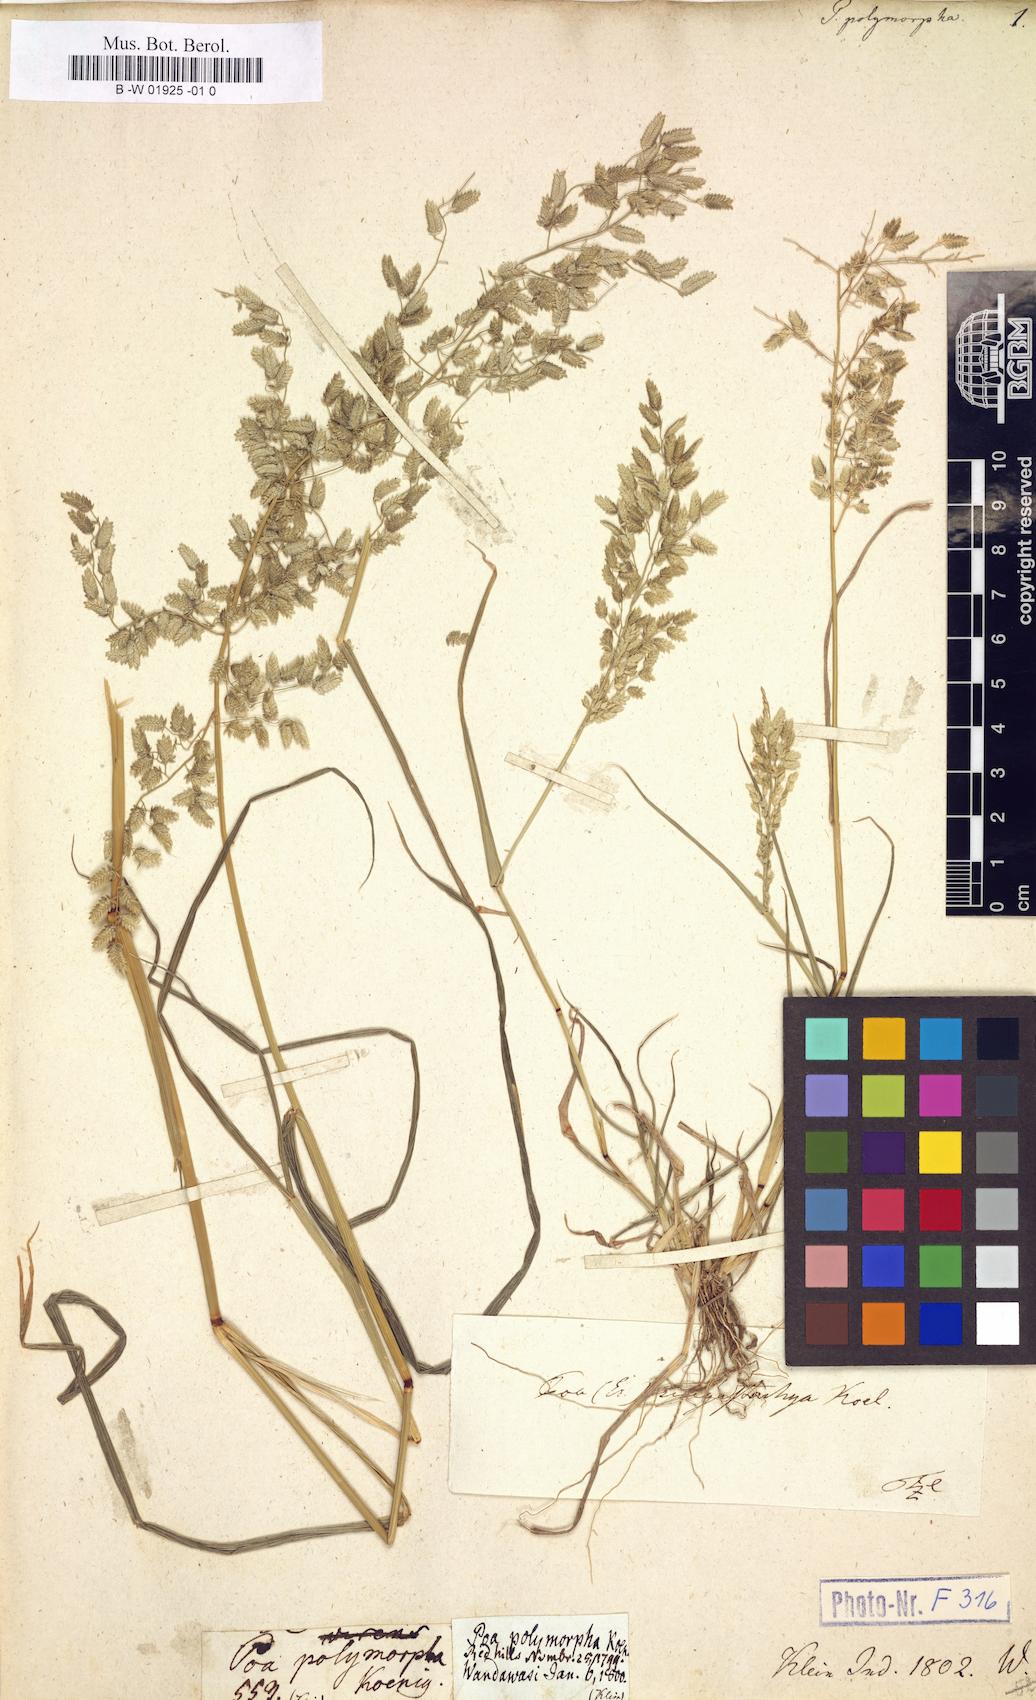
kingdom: Plantae
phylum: Tracheophyta
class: Liliopsida
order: Poales
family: Poaceae
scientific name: Poaceae
